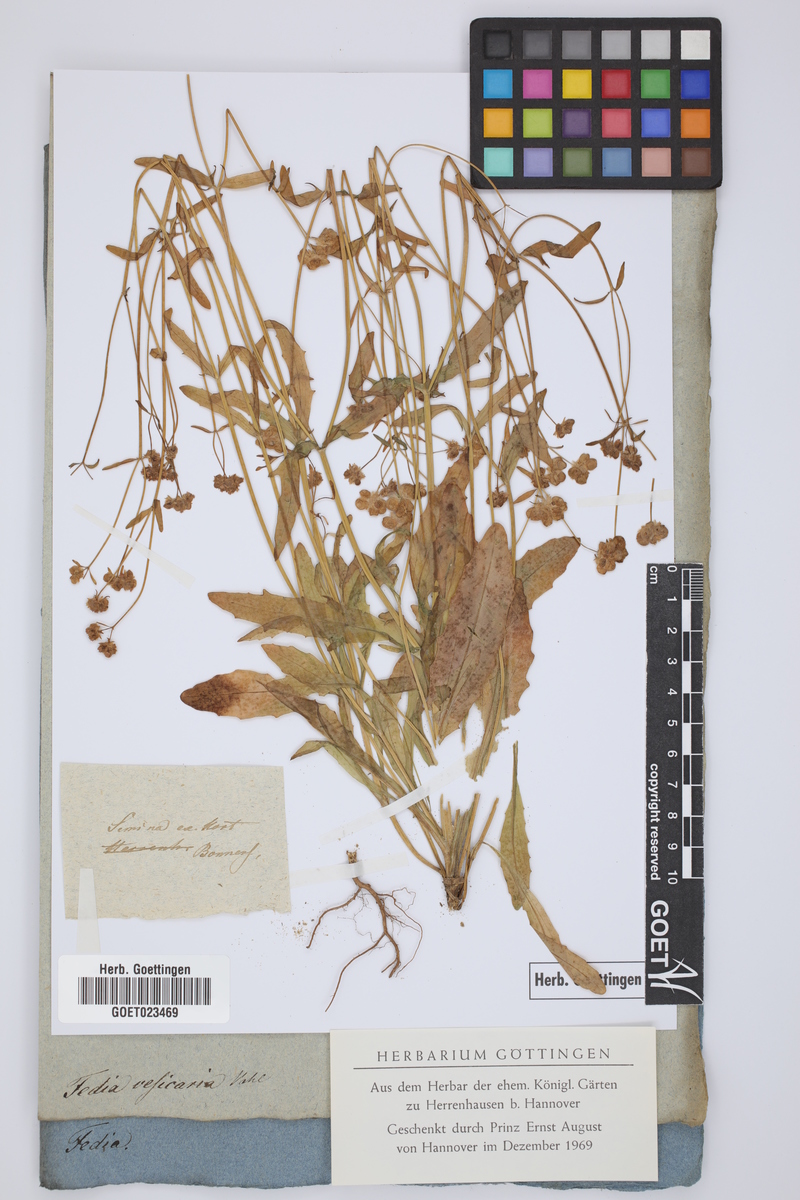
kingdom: Plantae
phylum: Tracheophyta
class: Magnoliopsida
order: Dipsacales
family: Caprifoliaceae
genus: Valerianella
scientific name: Valerianella vesicaria
